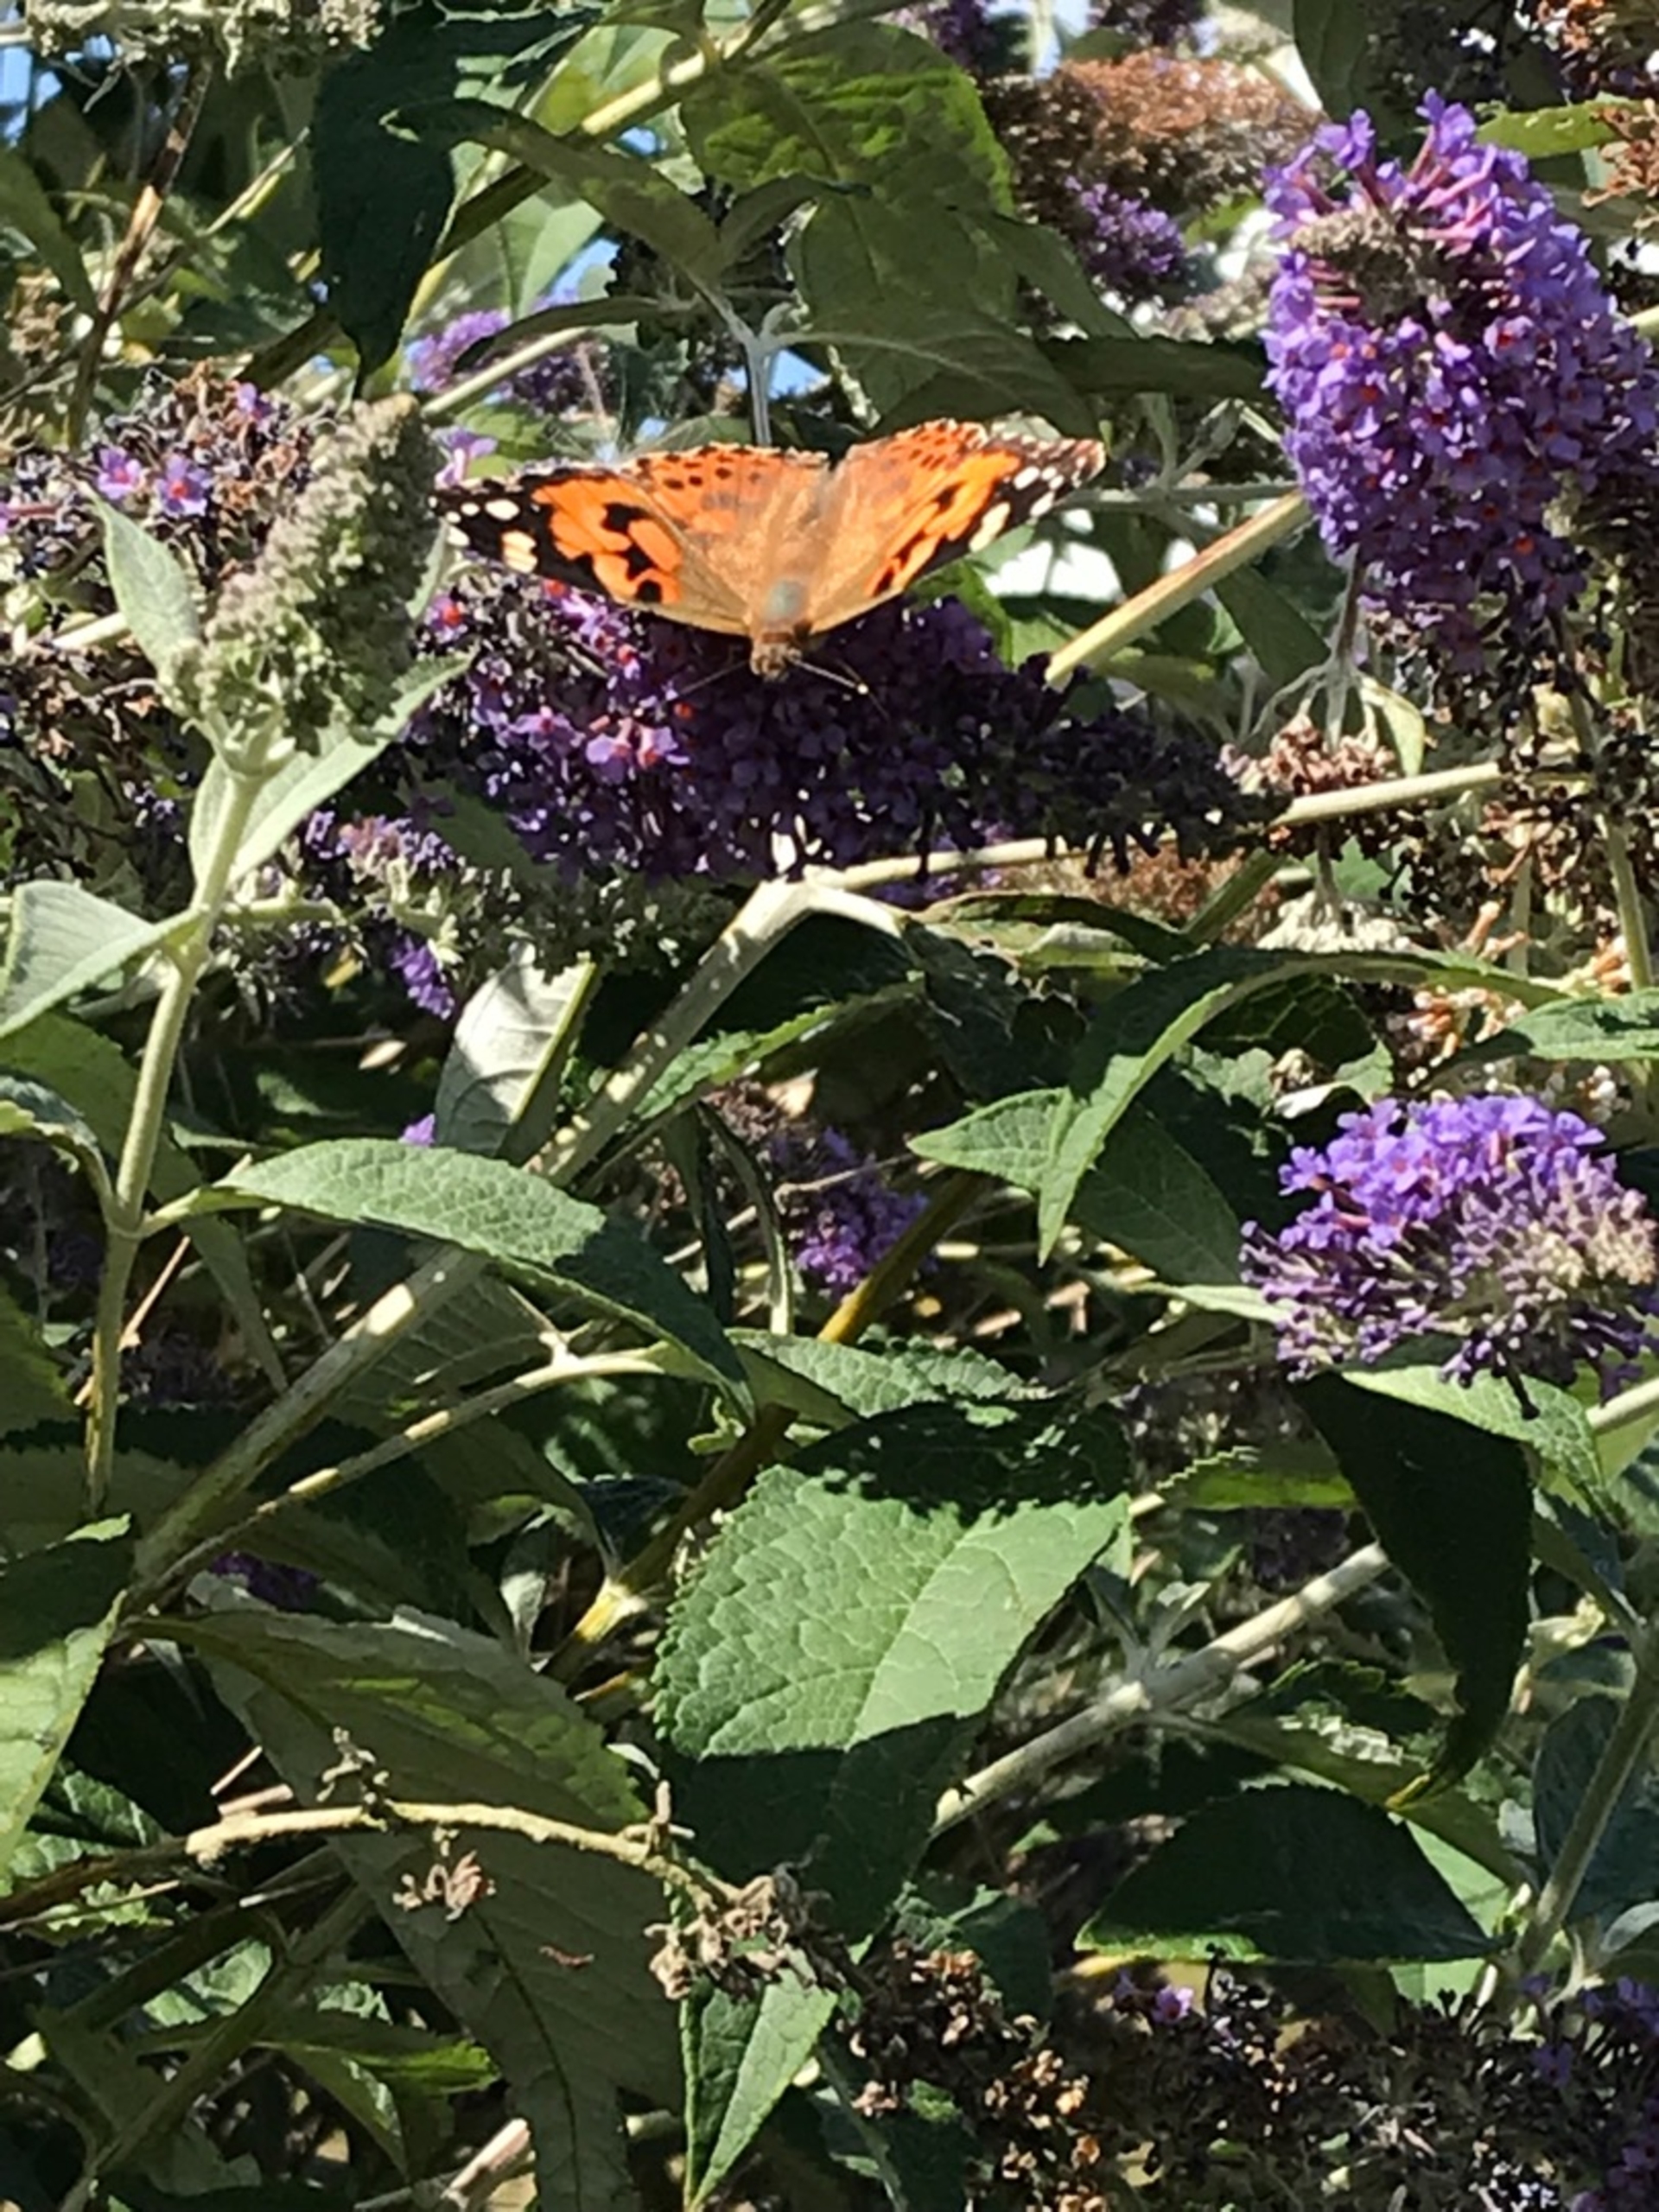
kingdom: Animalia
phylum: Arthropoda
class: Insecta
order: Lepidoptera
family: Nymphalidae
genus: Vanessa
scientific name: Vanessa cardui
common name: Tidselsommerfugl
